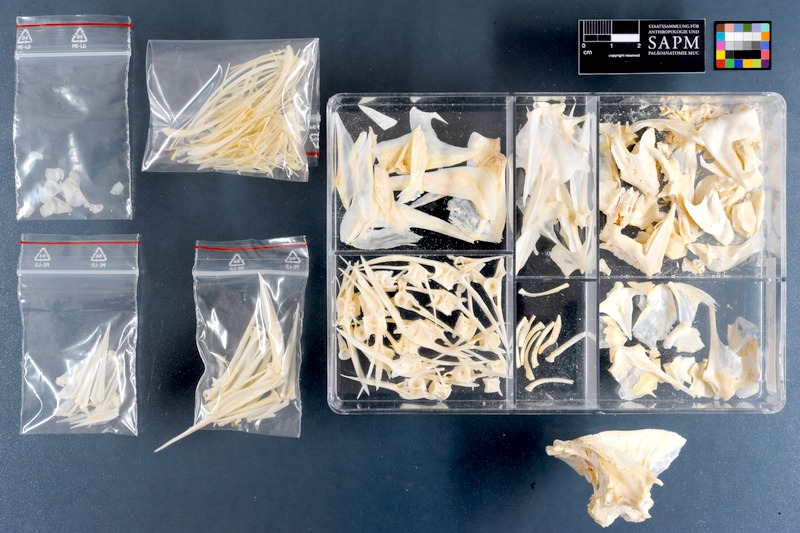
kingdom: Animalia
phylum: Chordata
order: Perciformes
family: Sparidae
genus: Acanthopagrus
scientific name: Acanthopagrus bifasciatus
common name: Twobar seabream
